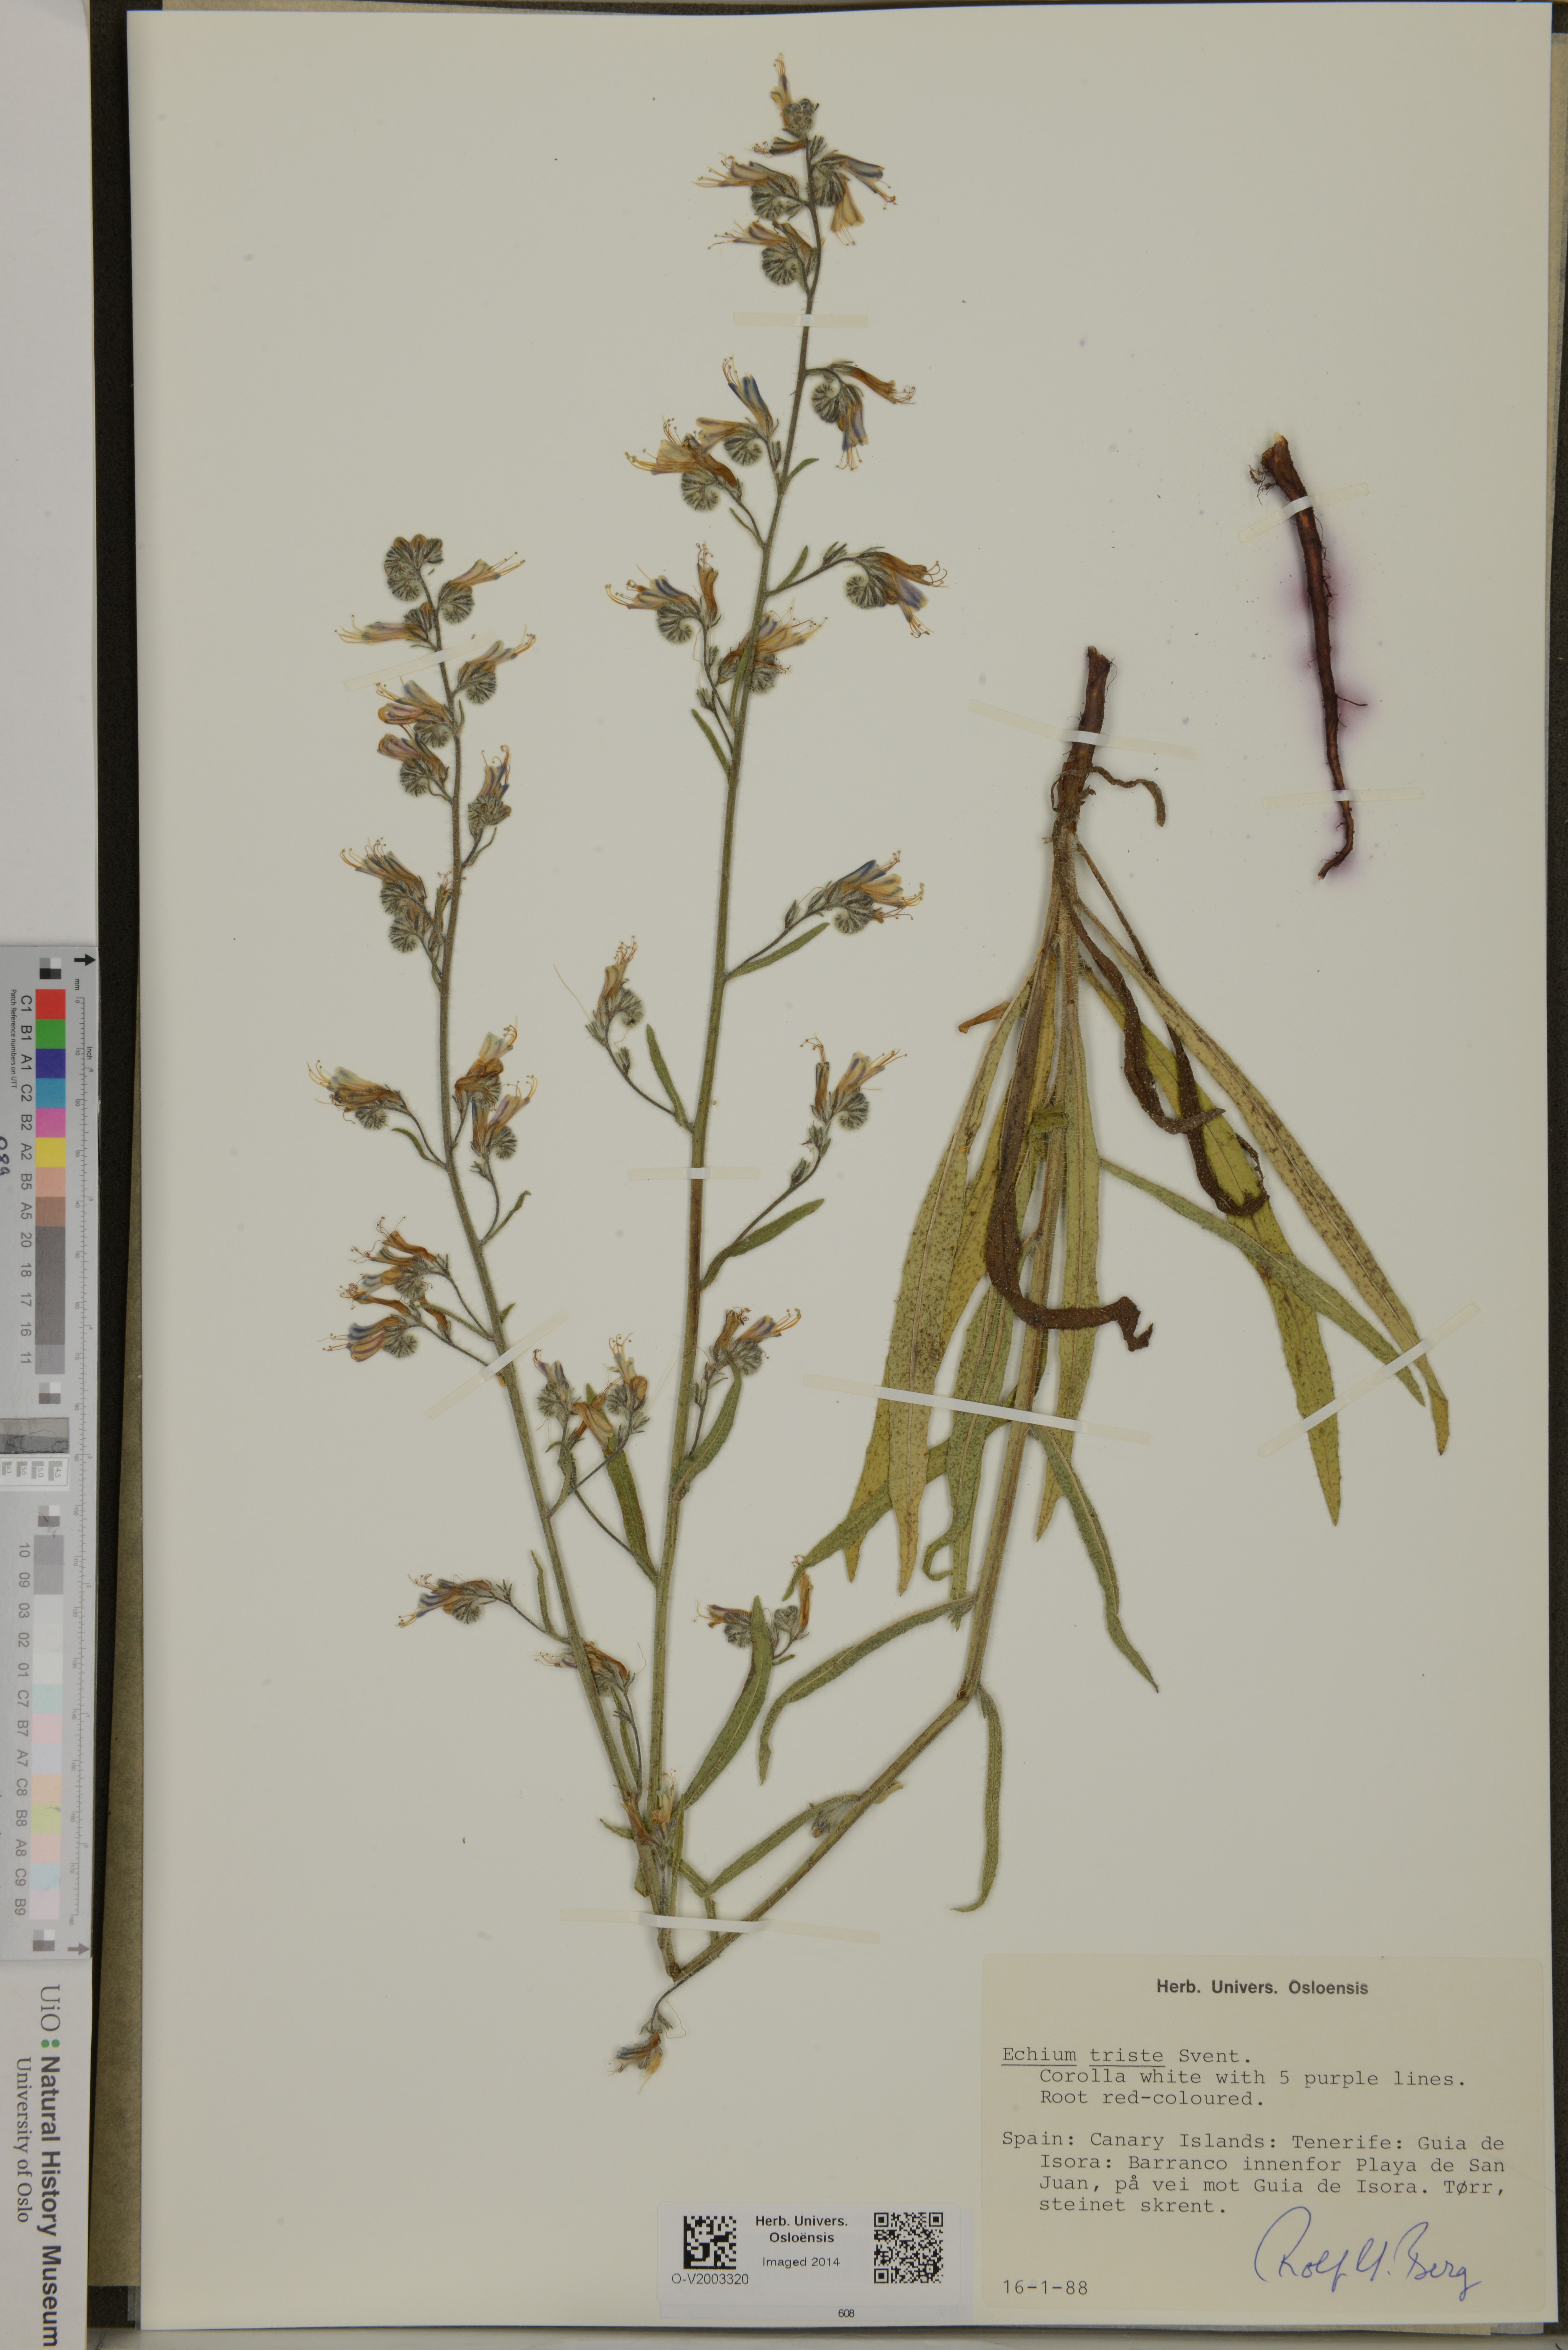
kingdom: Plantae
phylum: Tracheophyta
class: Magnoliopsida
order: Boraginales
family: Boraginaceae
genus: Echium
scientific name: Echium triste
